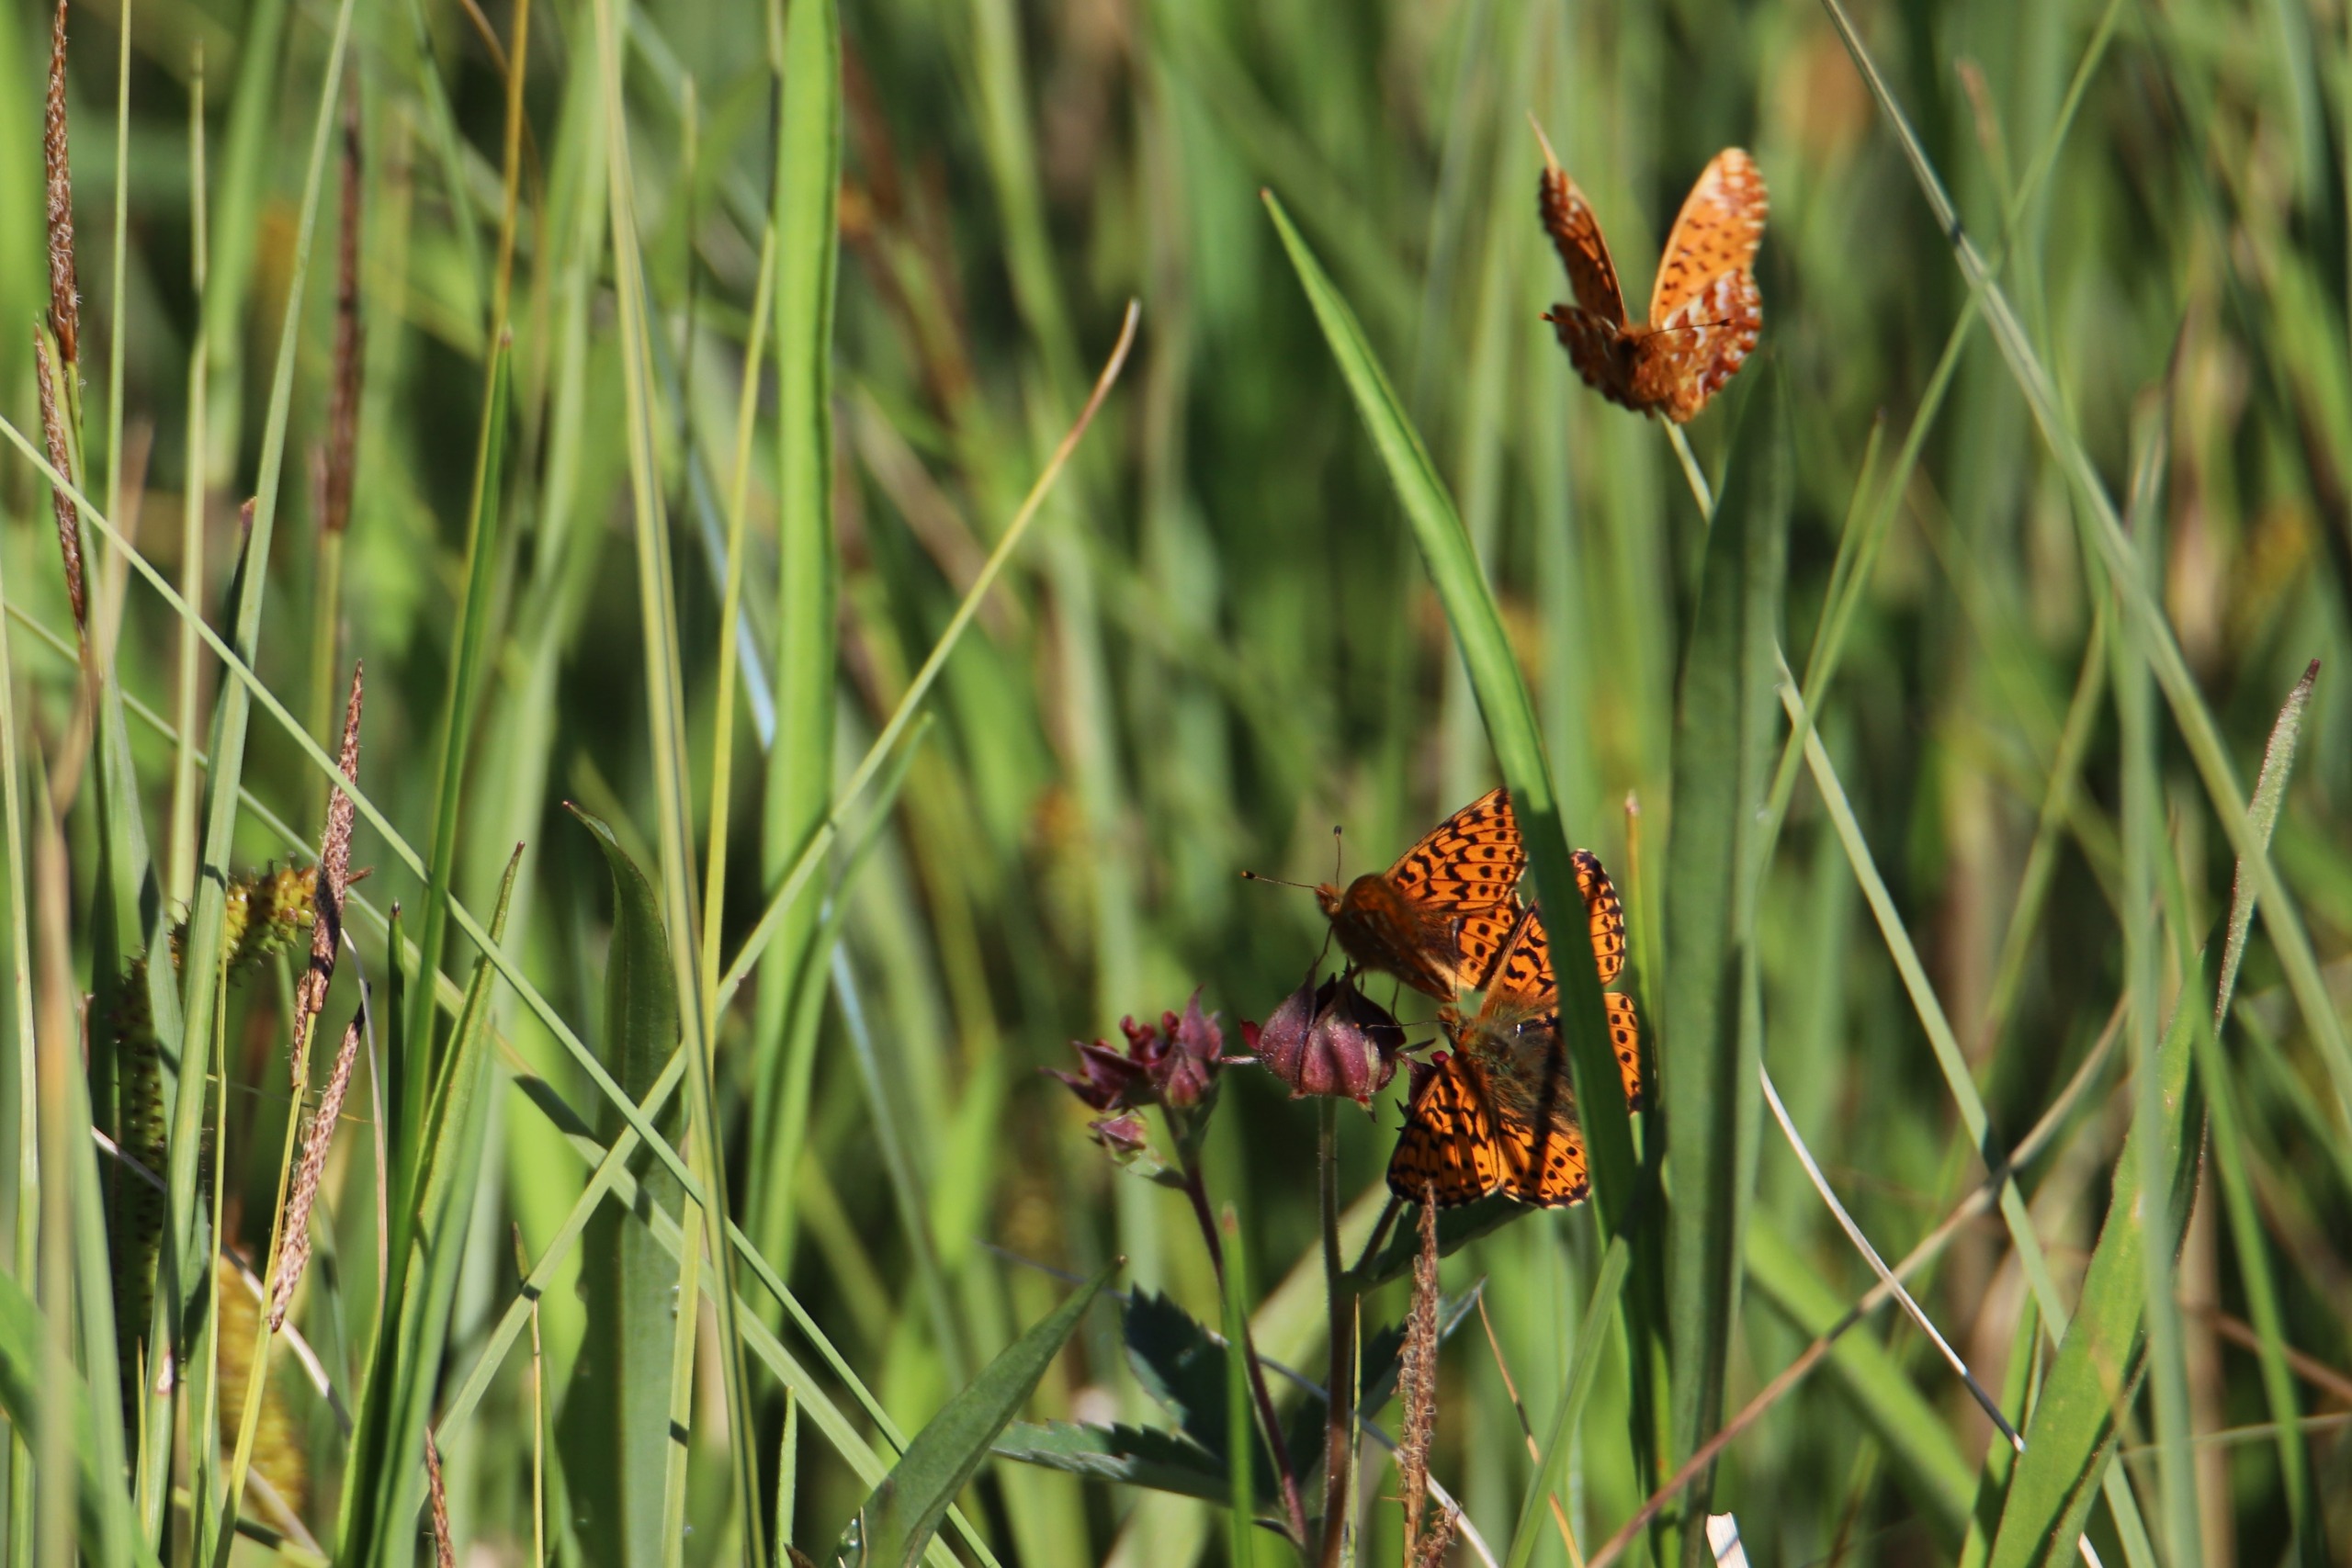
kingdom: Animalia
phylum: Arthropoda
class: Insecta
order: Lepidoptera
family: Nymphalidae
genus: Boloria
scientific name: Boloria aquilonaris
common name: Moseperlemorsommerfugl
